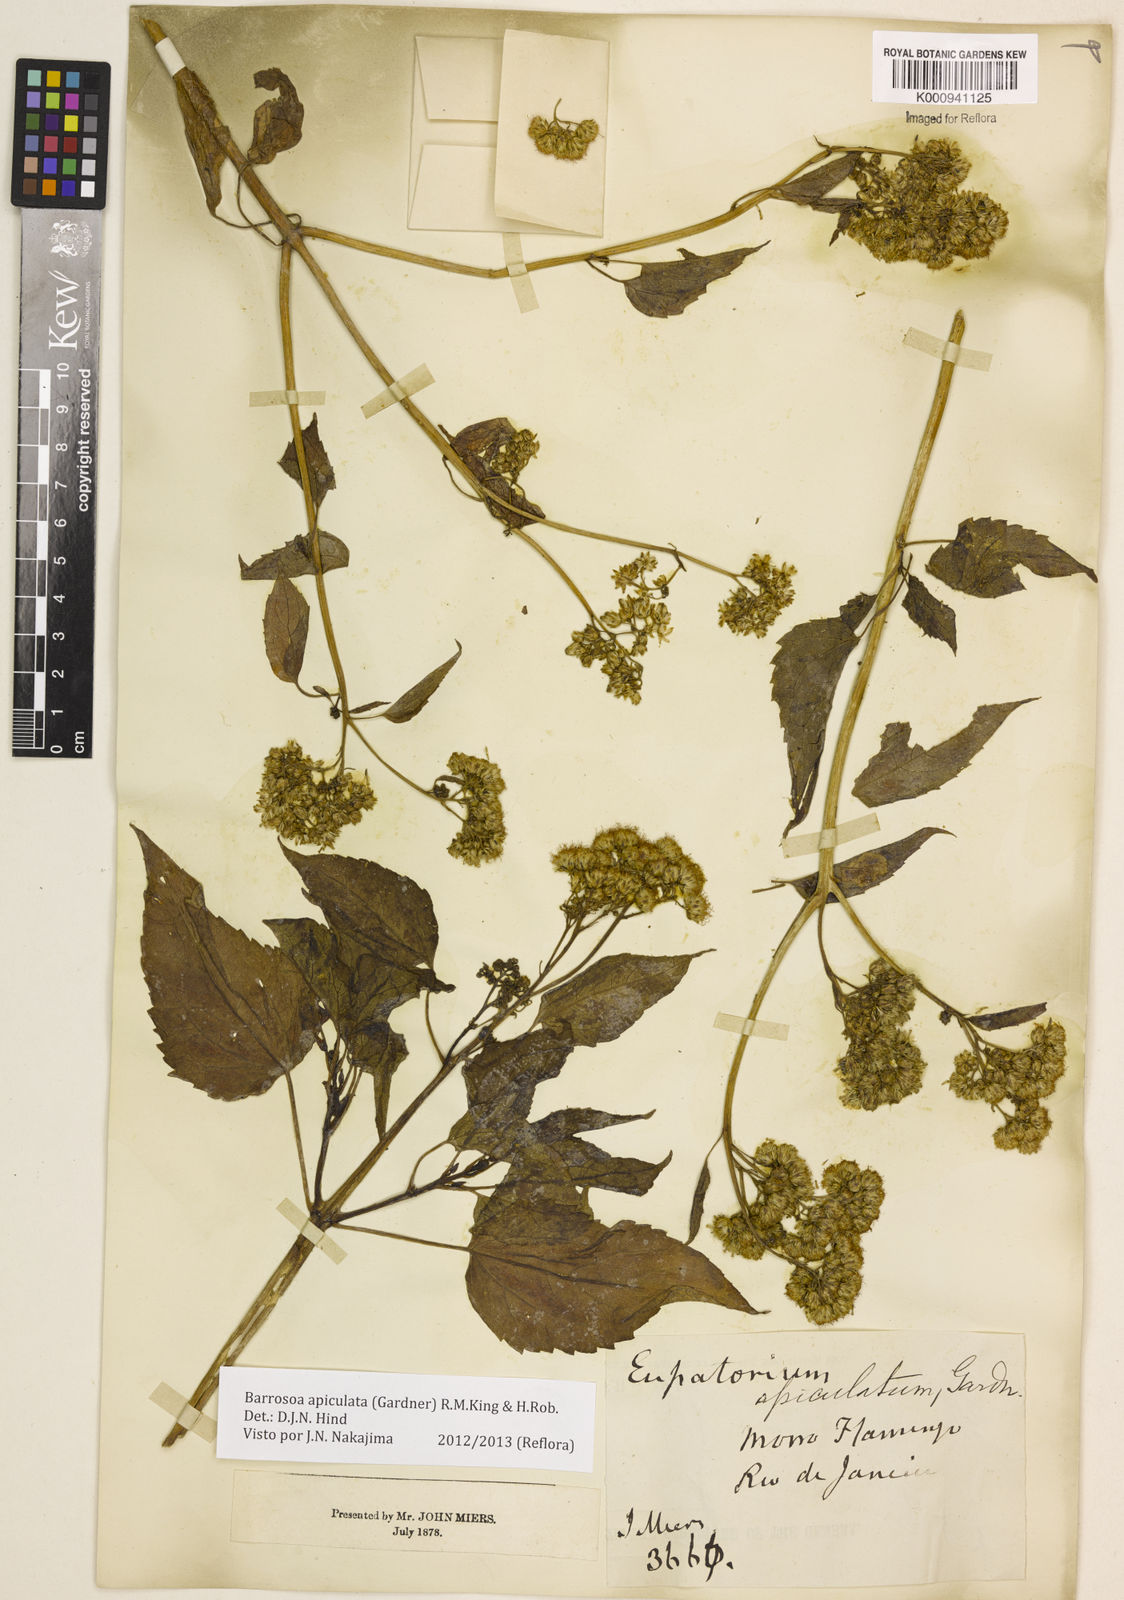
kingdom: Plantae
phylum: Tracheophyta
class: Magnoliopsida
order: Asterales
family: Asteraceae
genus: Barrosoa
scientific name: Barrosoa apiculata
